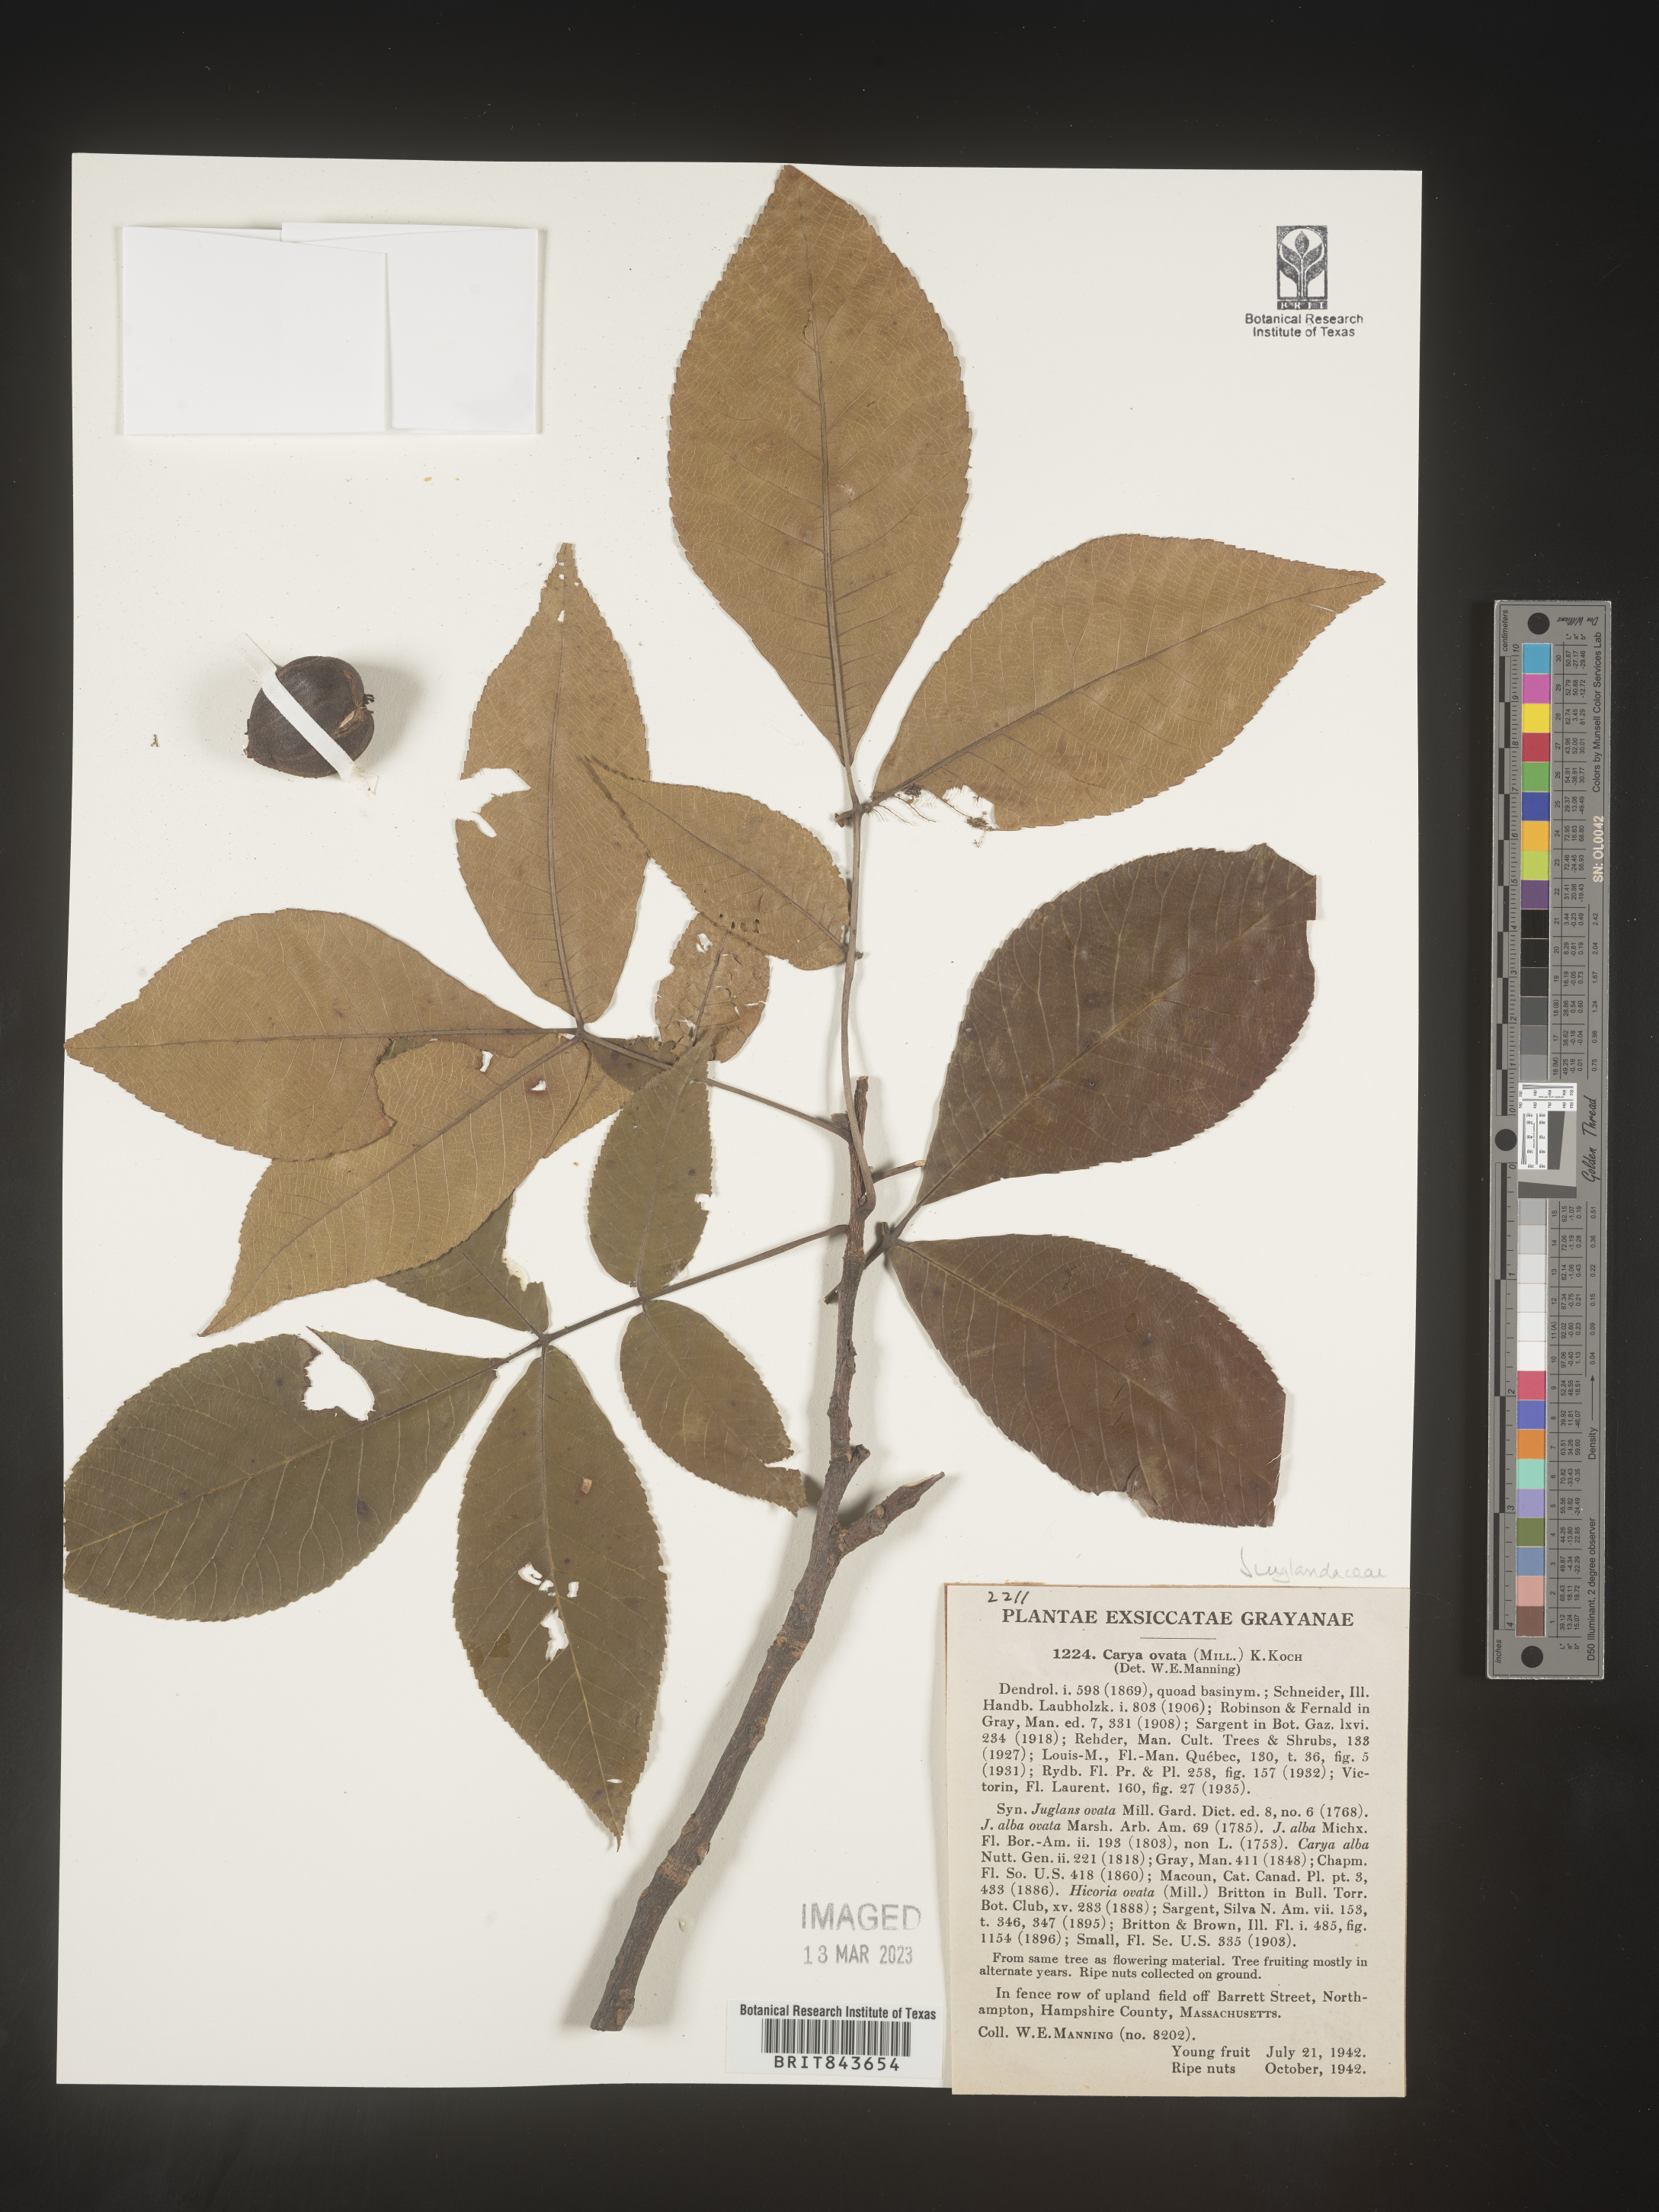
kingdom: Plantae
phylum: Tracheophyta
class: Magnoliopsida
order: Fagales
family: Juglandaceae
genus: Carya
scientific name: Carya ovata
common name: Shagbark hickory
